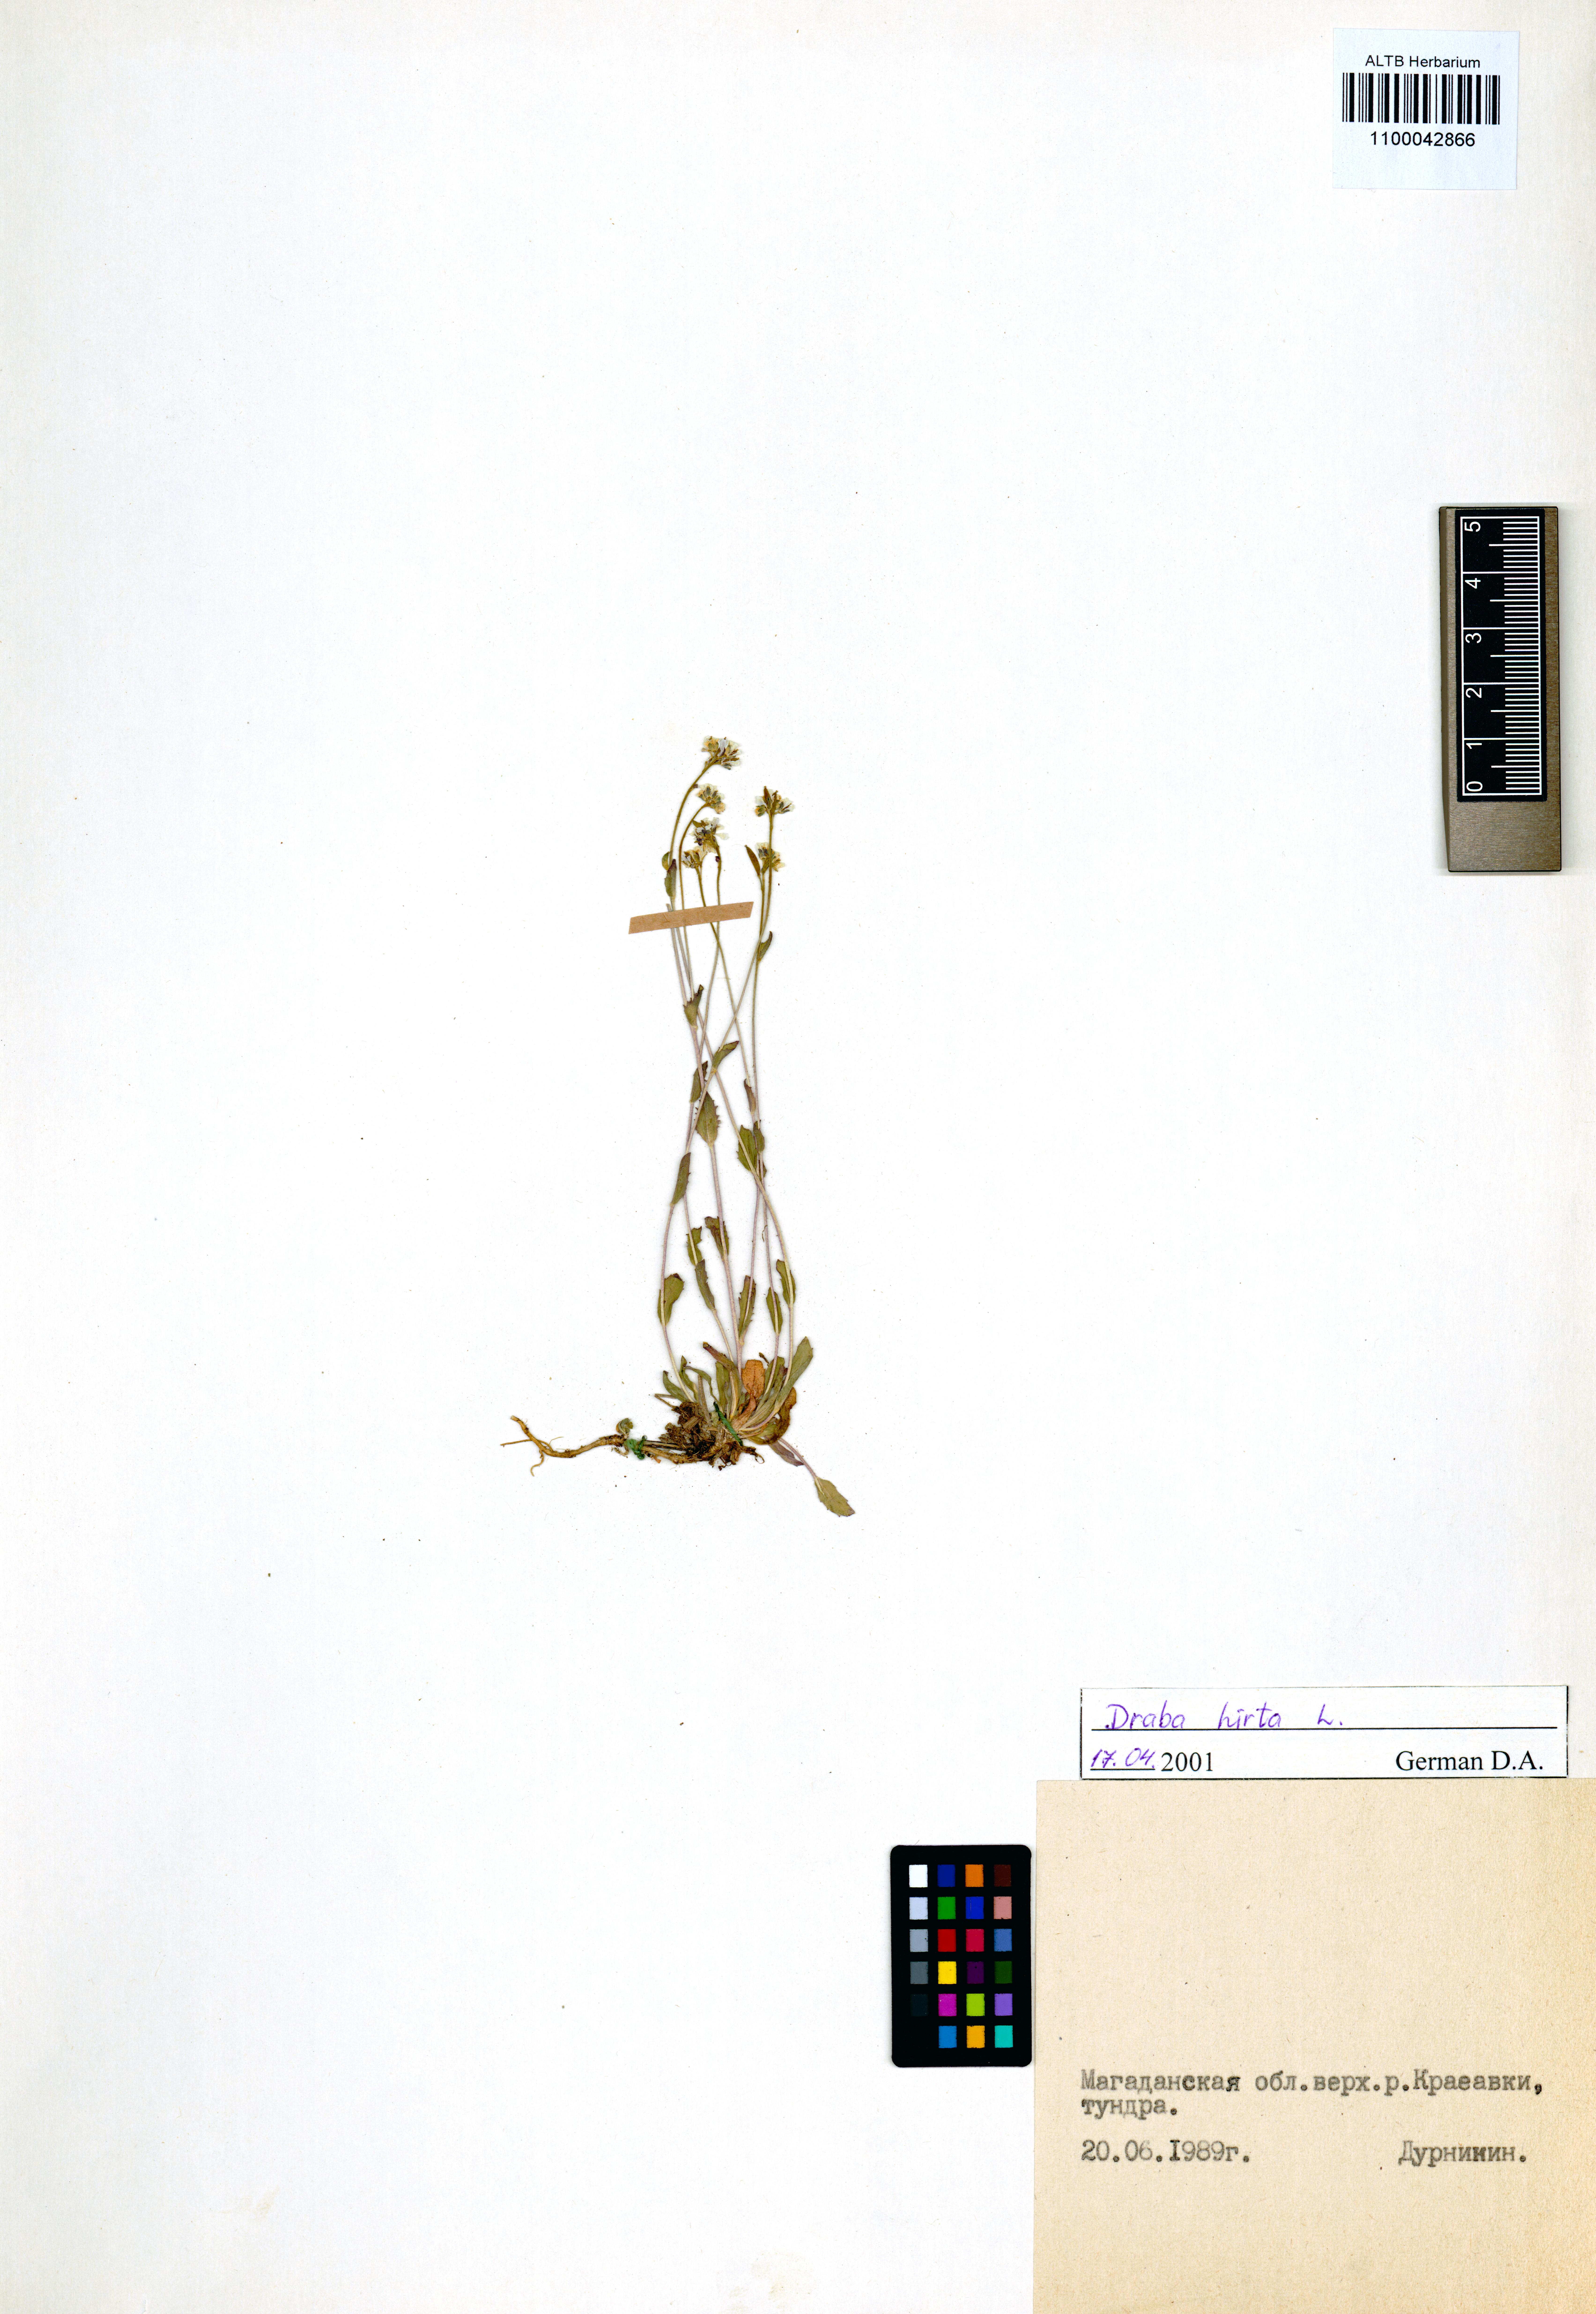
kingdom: Plantae
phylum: Tracheophyta
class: Magnoliopsida
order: Brassicales
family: Brassicaceae
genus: Draba
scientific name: Draba glabella
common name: Glaucous draba
